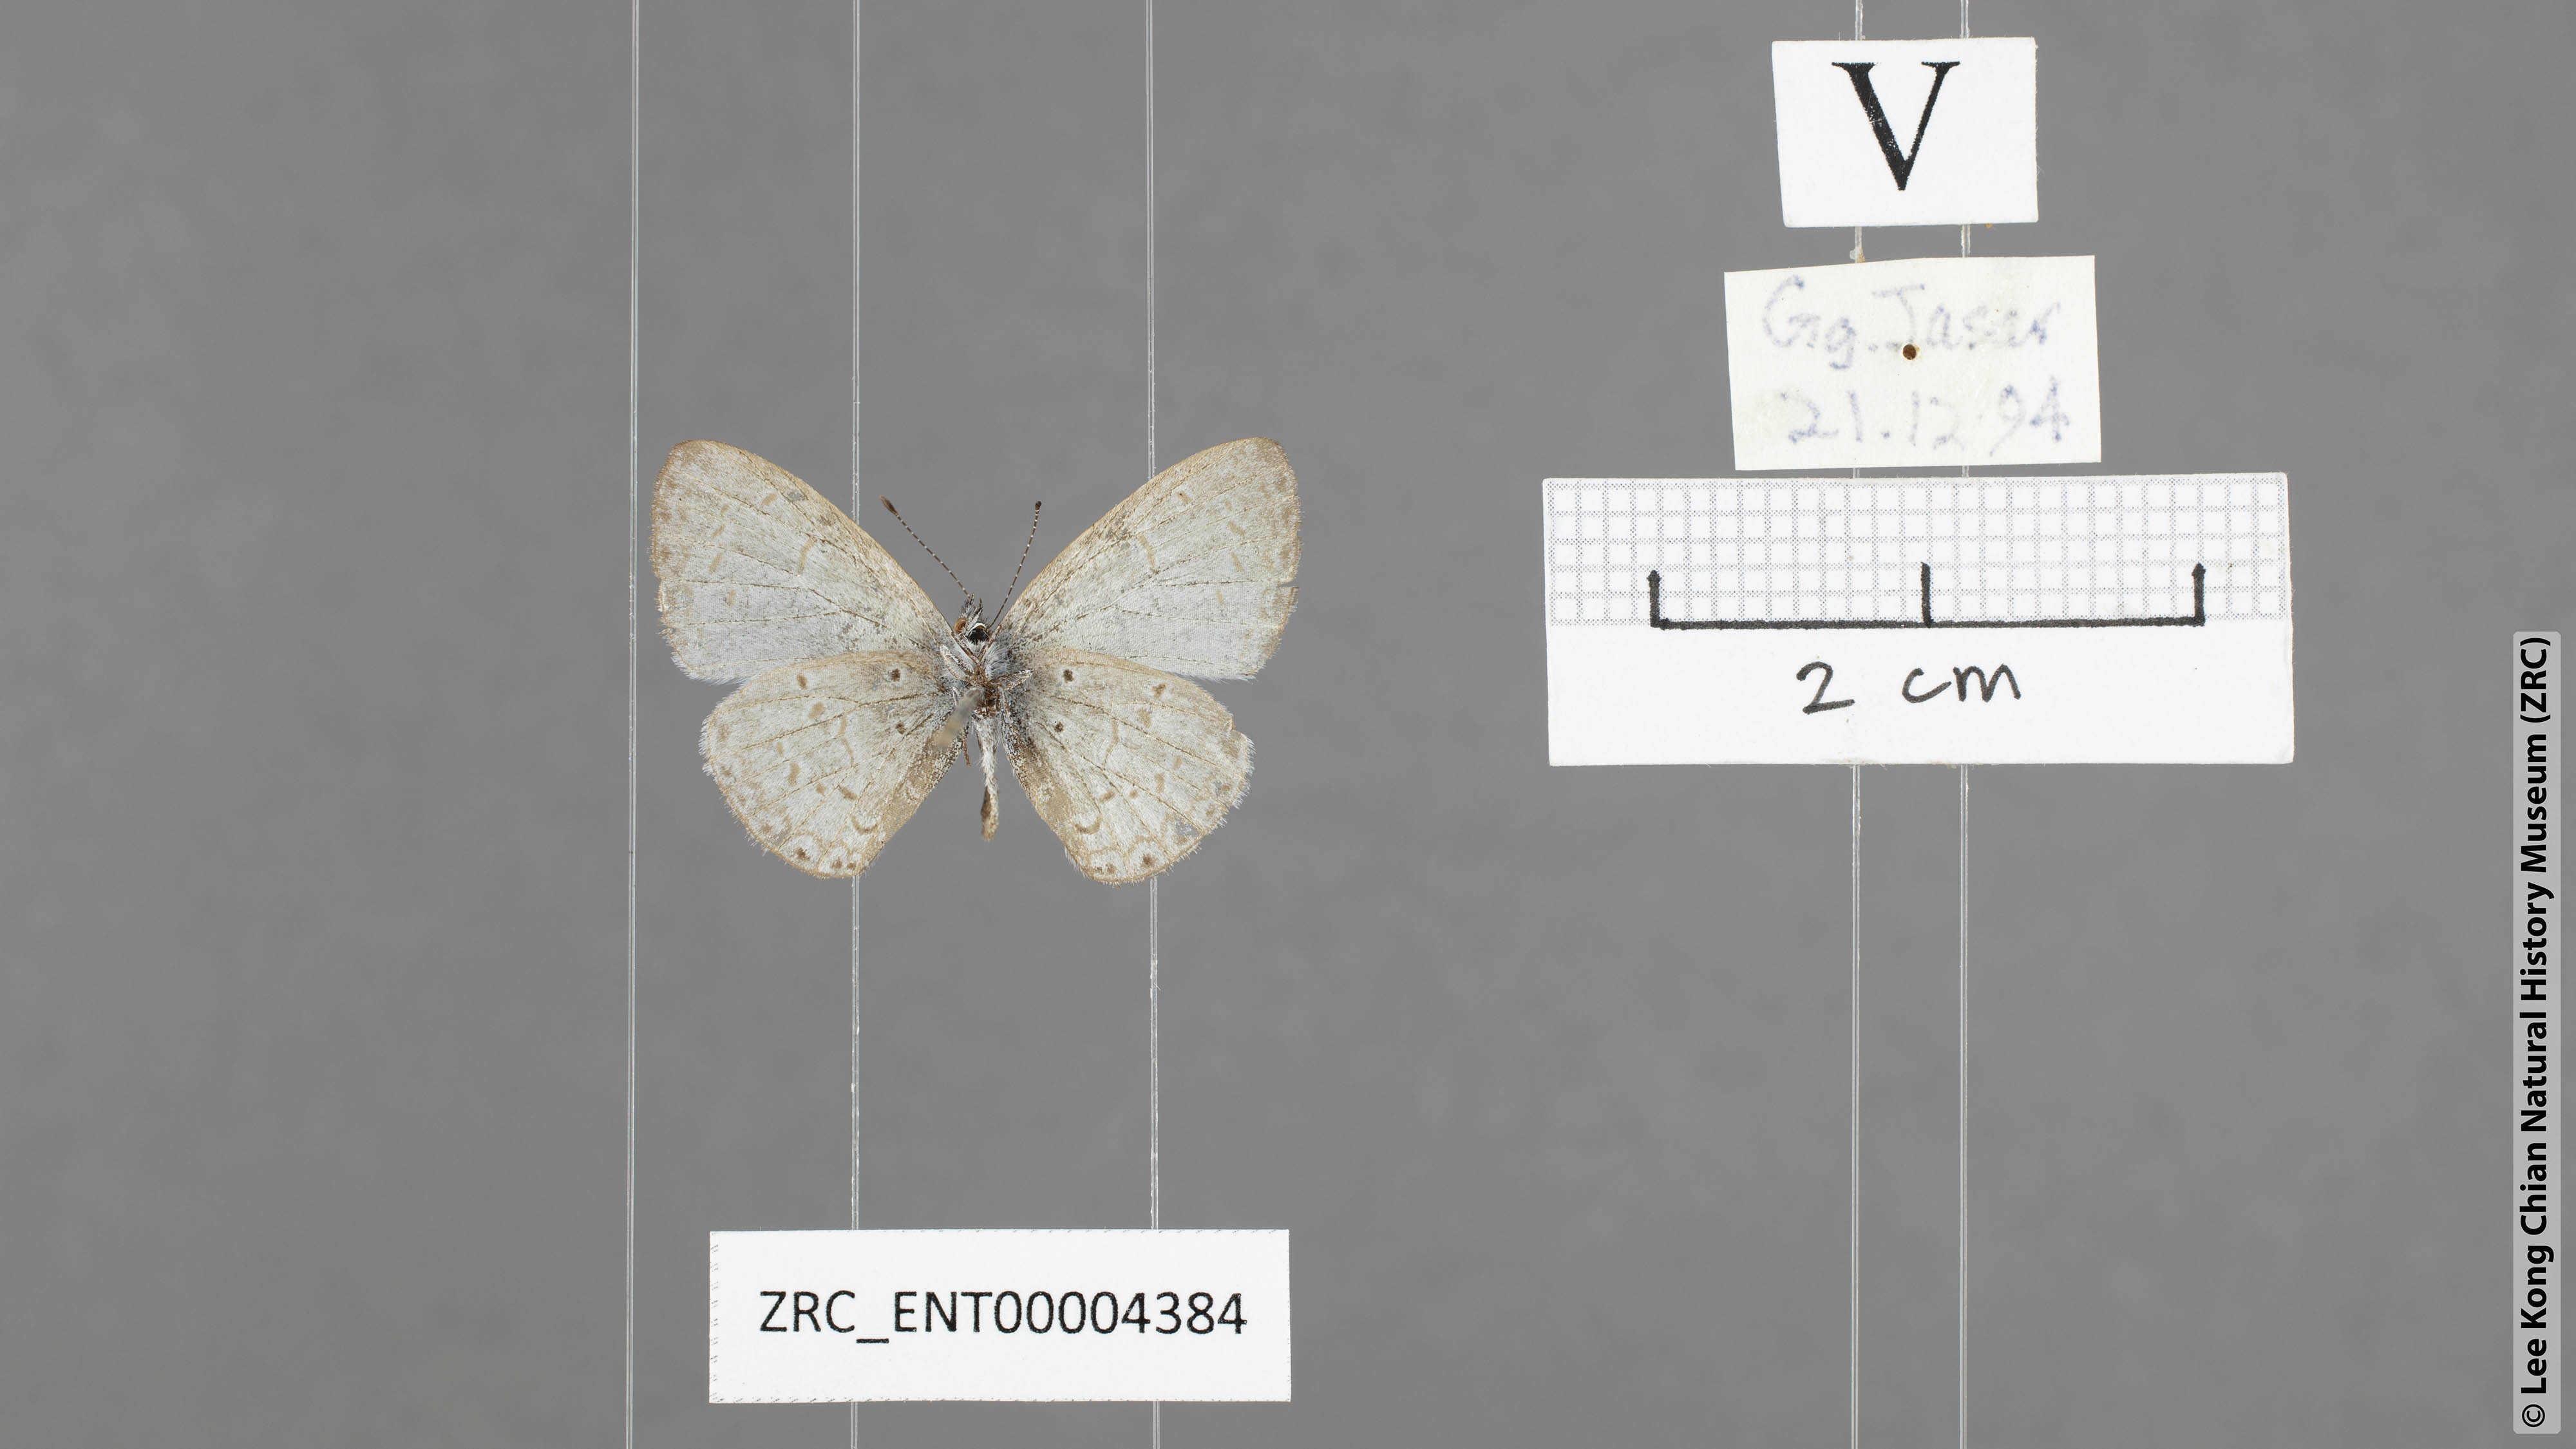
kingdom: Animalia
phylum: Arthropoda
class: Insecta
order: Lepidoptera
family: Lycaenidae
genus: Monodontides
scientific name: Monodontides
